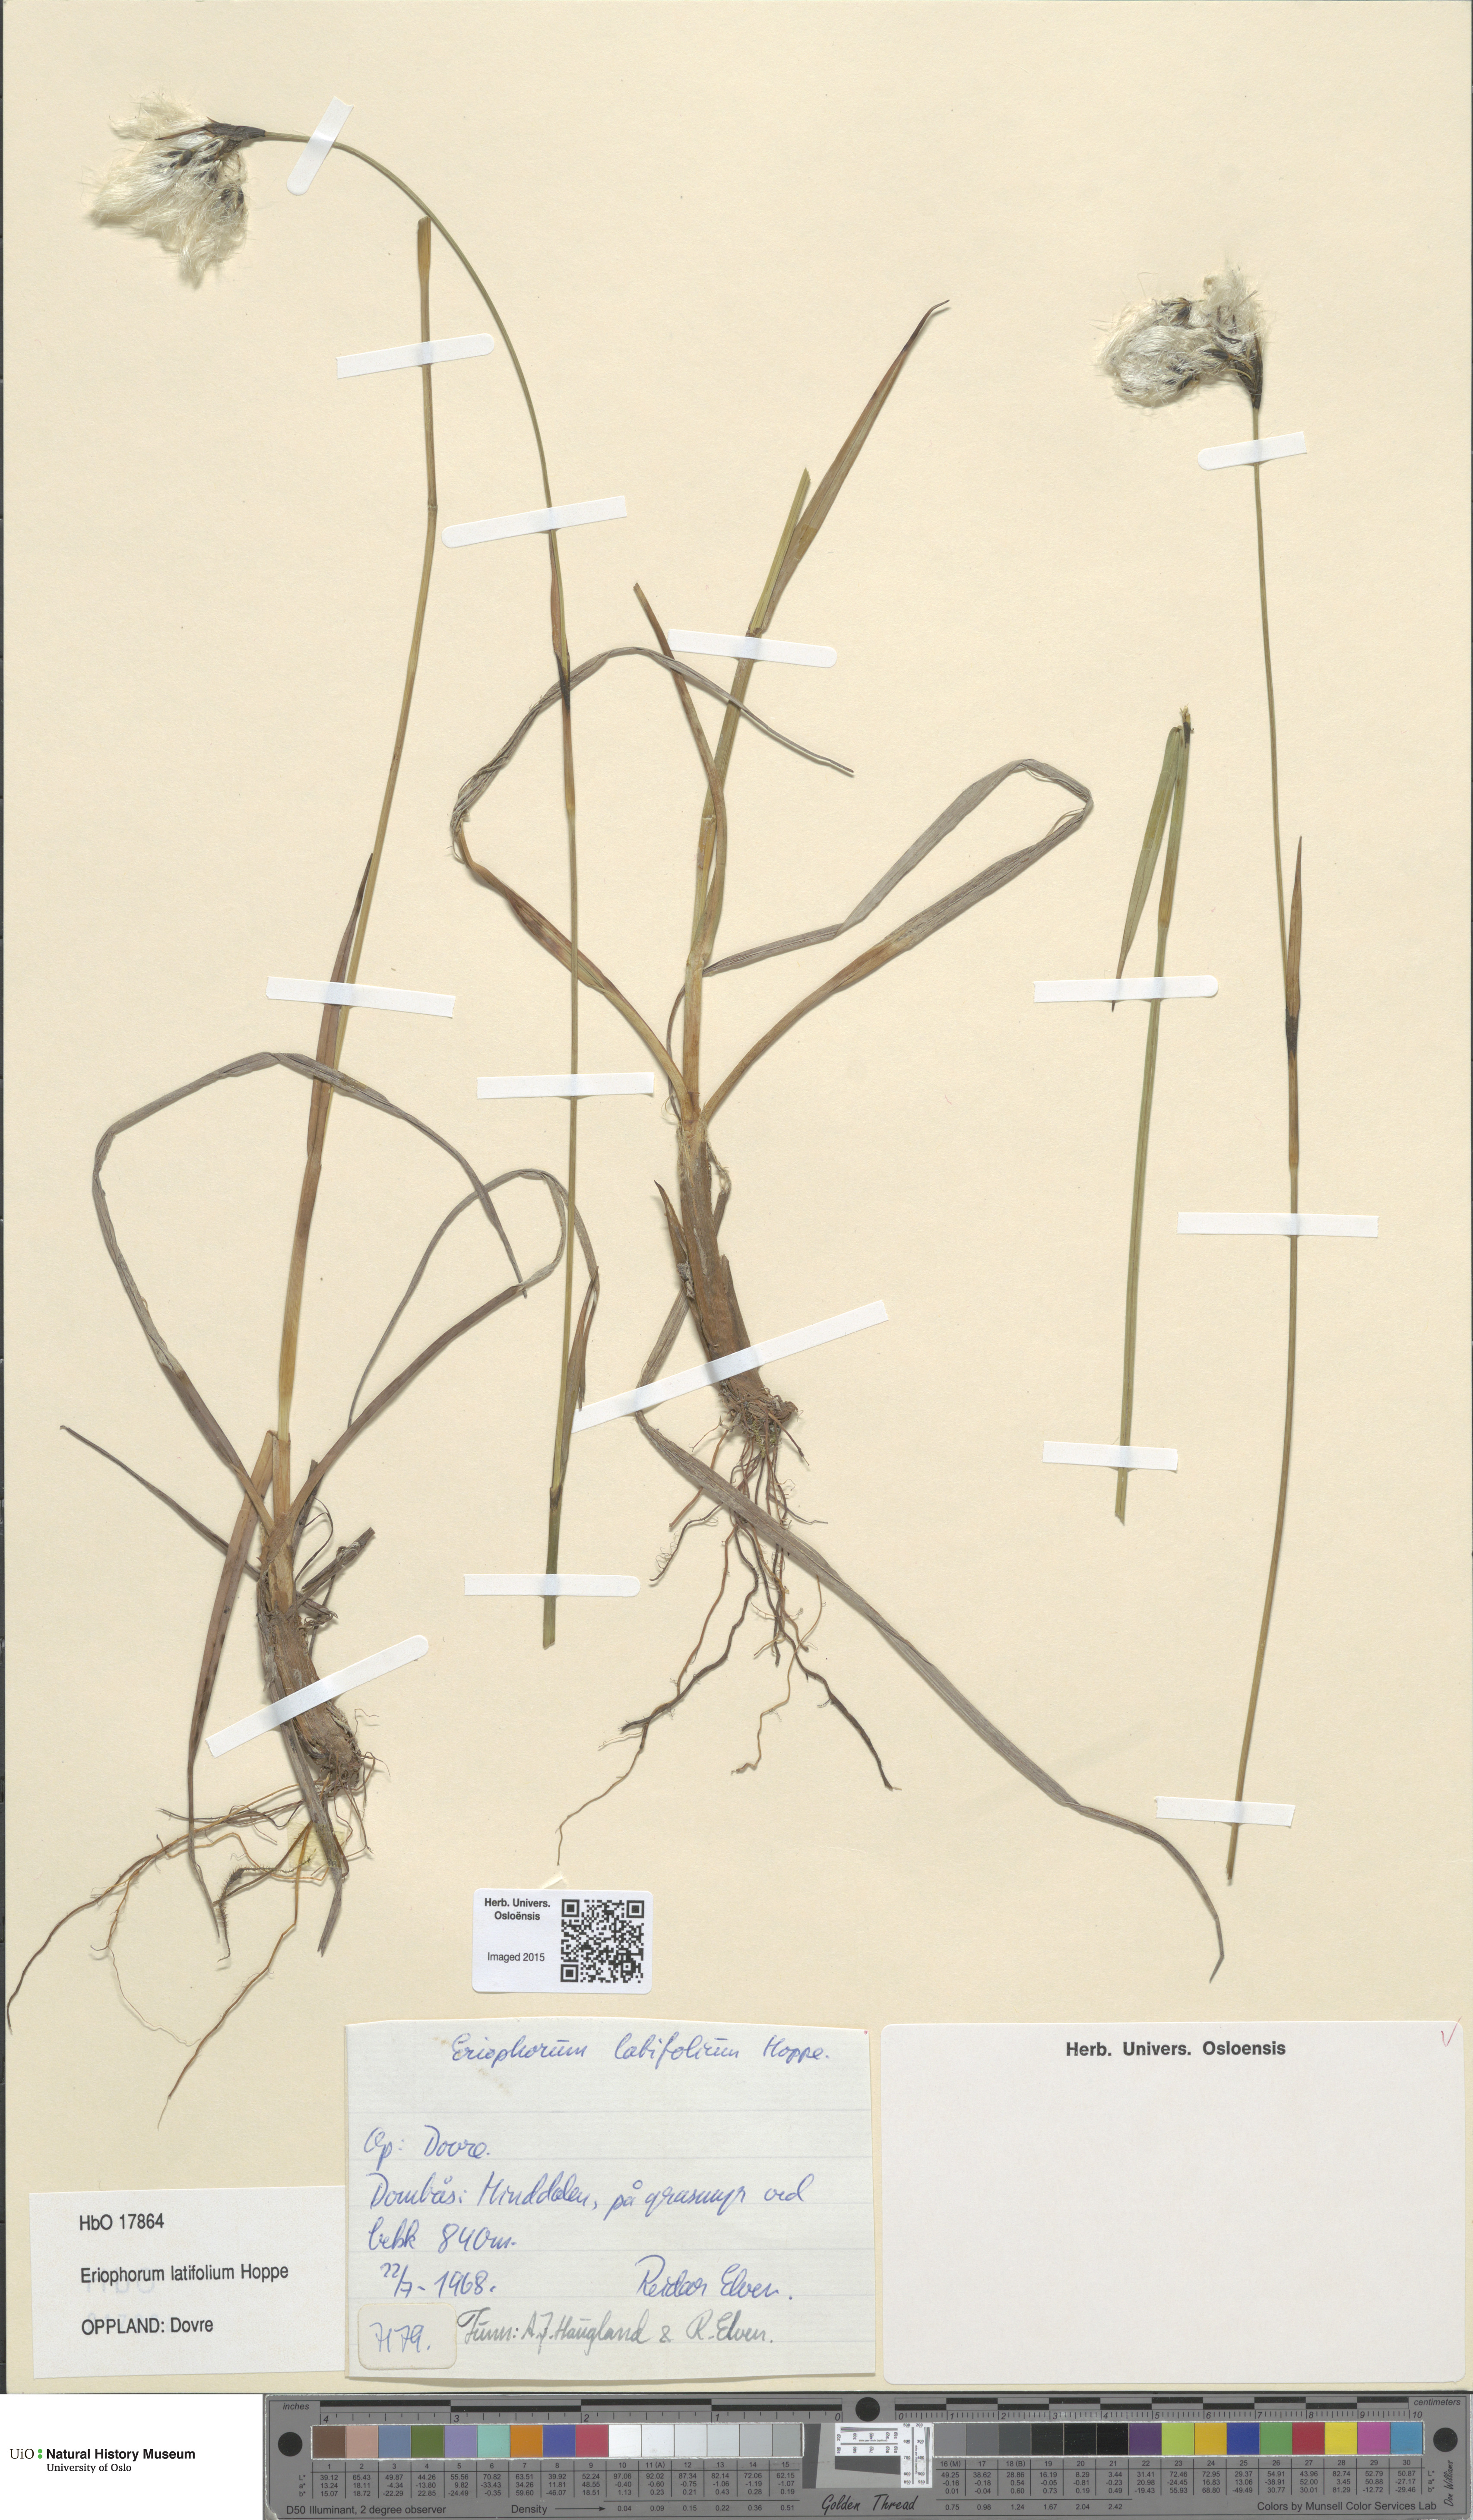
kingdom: Plantae
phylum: Tracheophyta
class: Liliopsida
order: Poales
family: Cyperaceae
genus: Eriophorum
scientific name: Eriophorum latifolium
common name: Broad-leaved cottongrass
